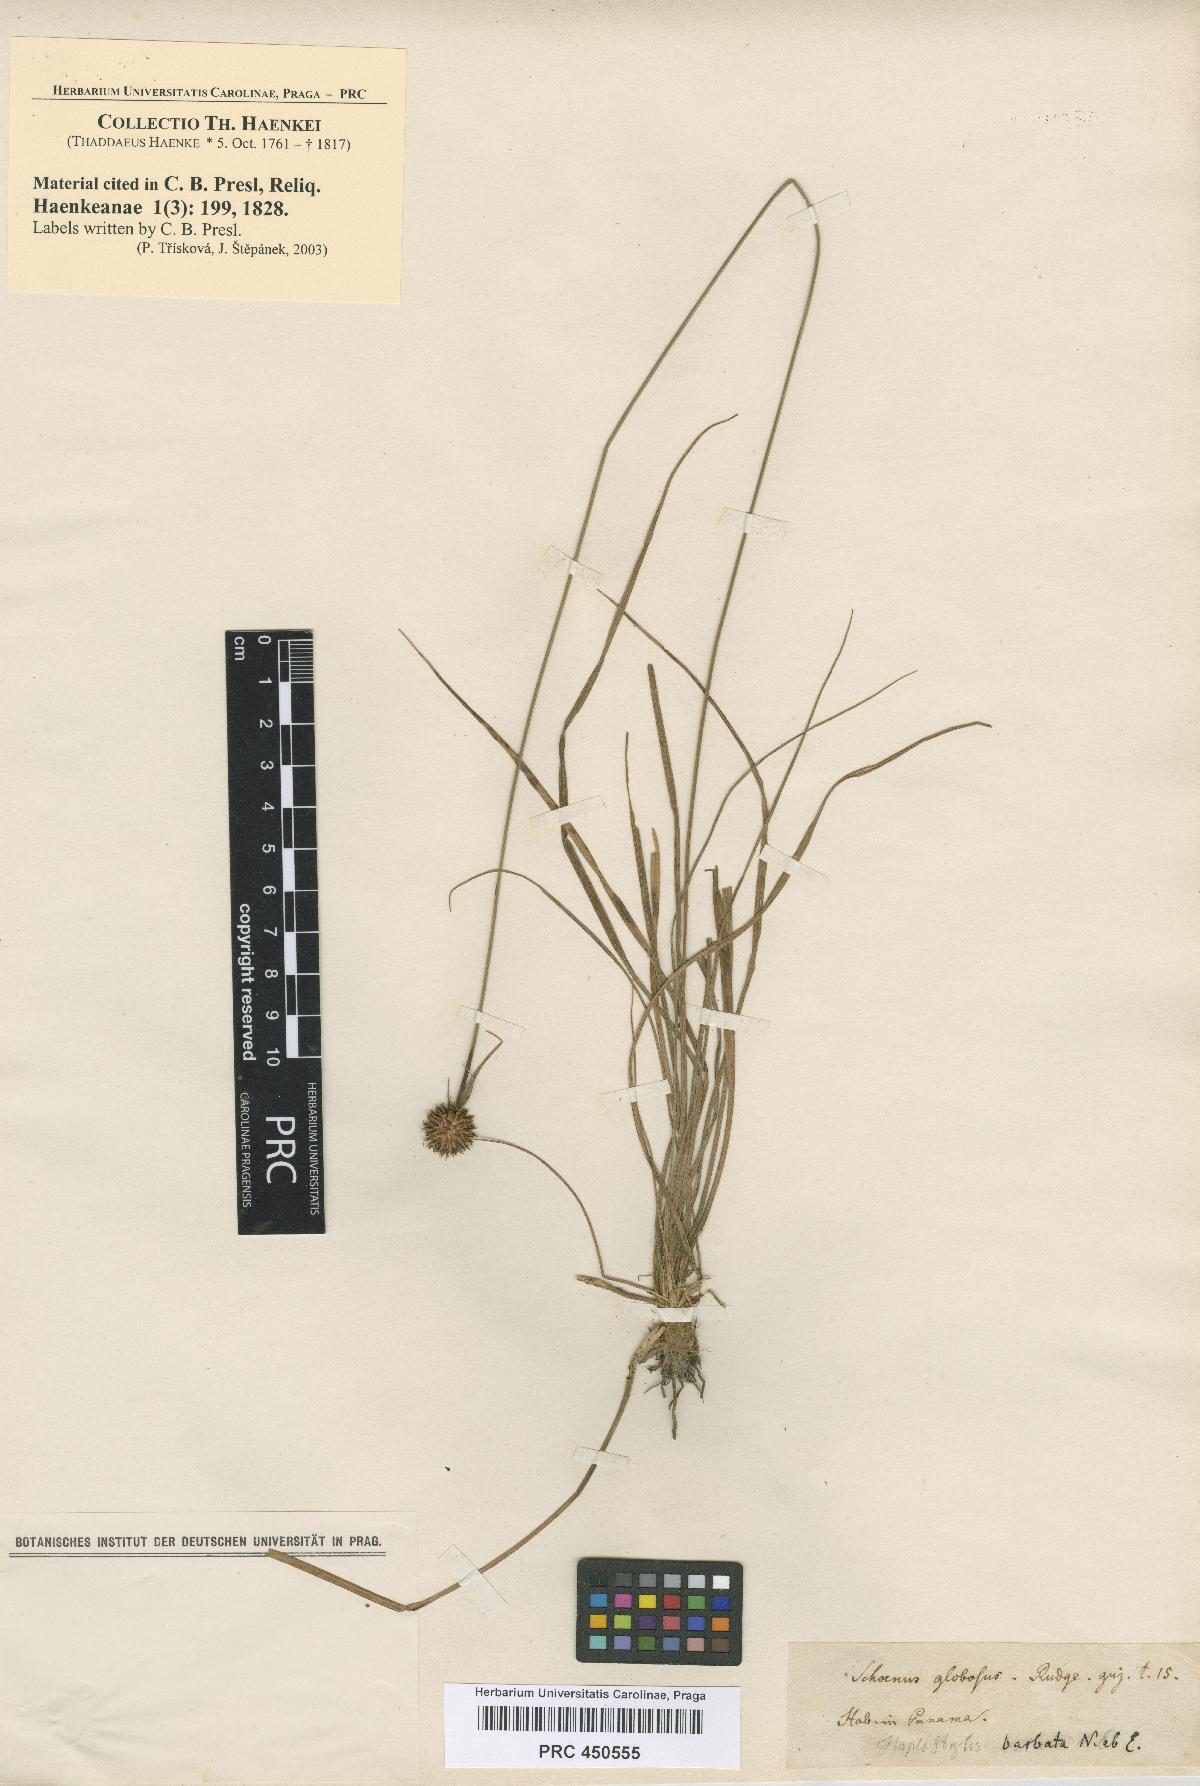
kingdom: Plantae
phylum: Tracheophyta
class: Liliopsida
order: Poales
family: Cyperaceae
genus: Schoenus
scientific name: Schoenus
